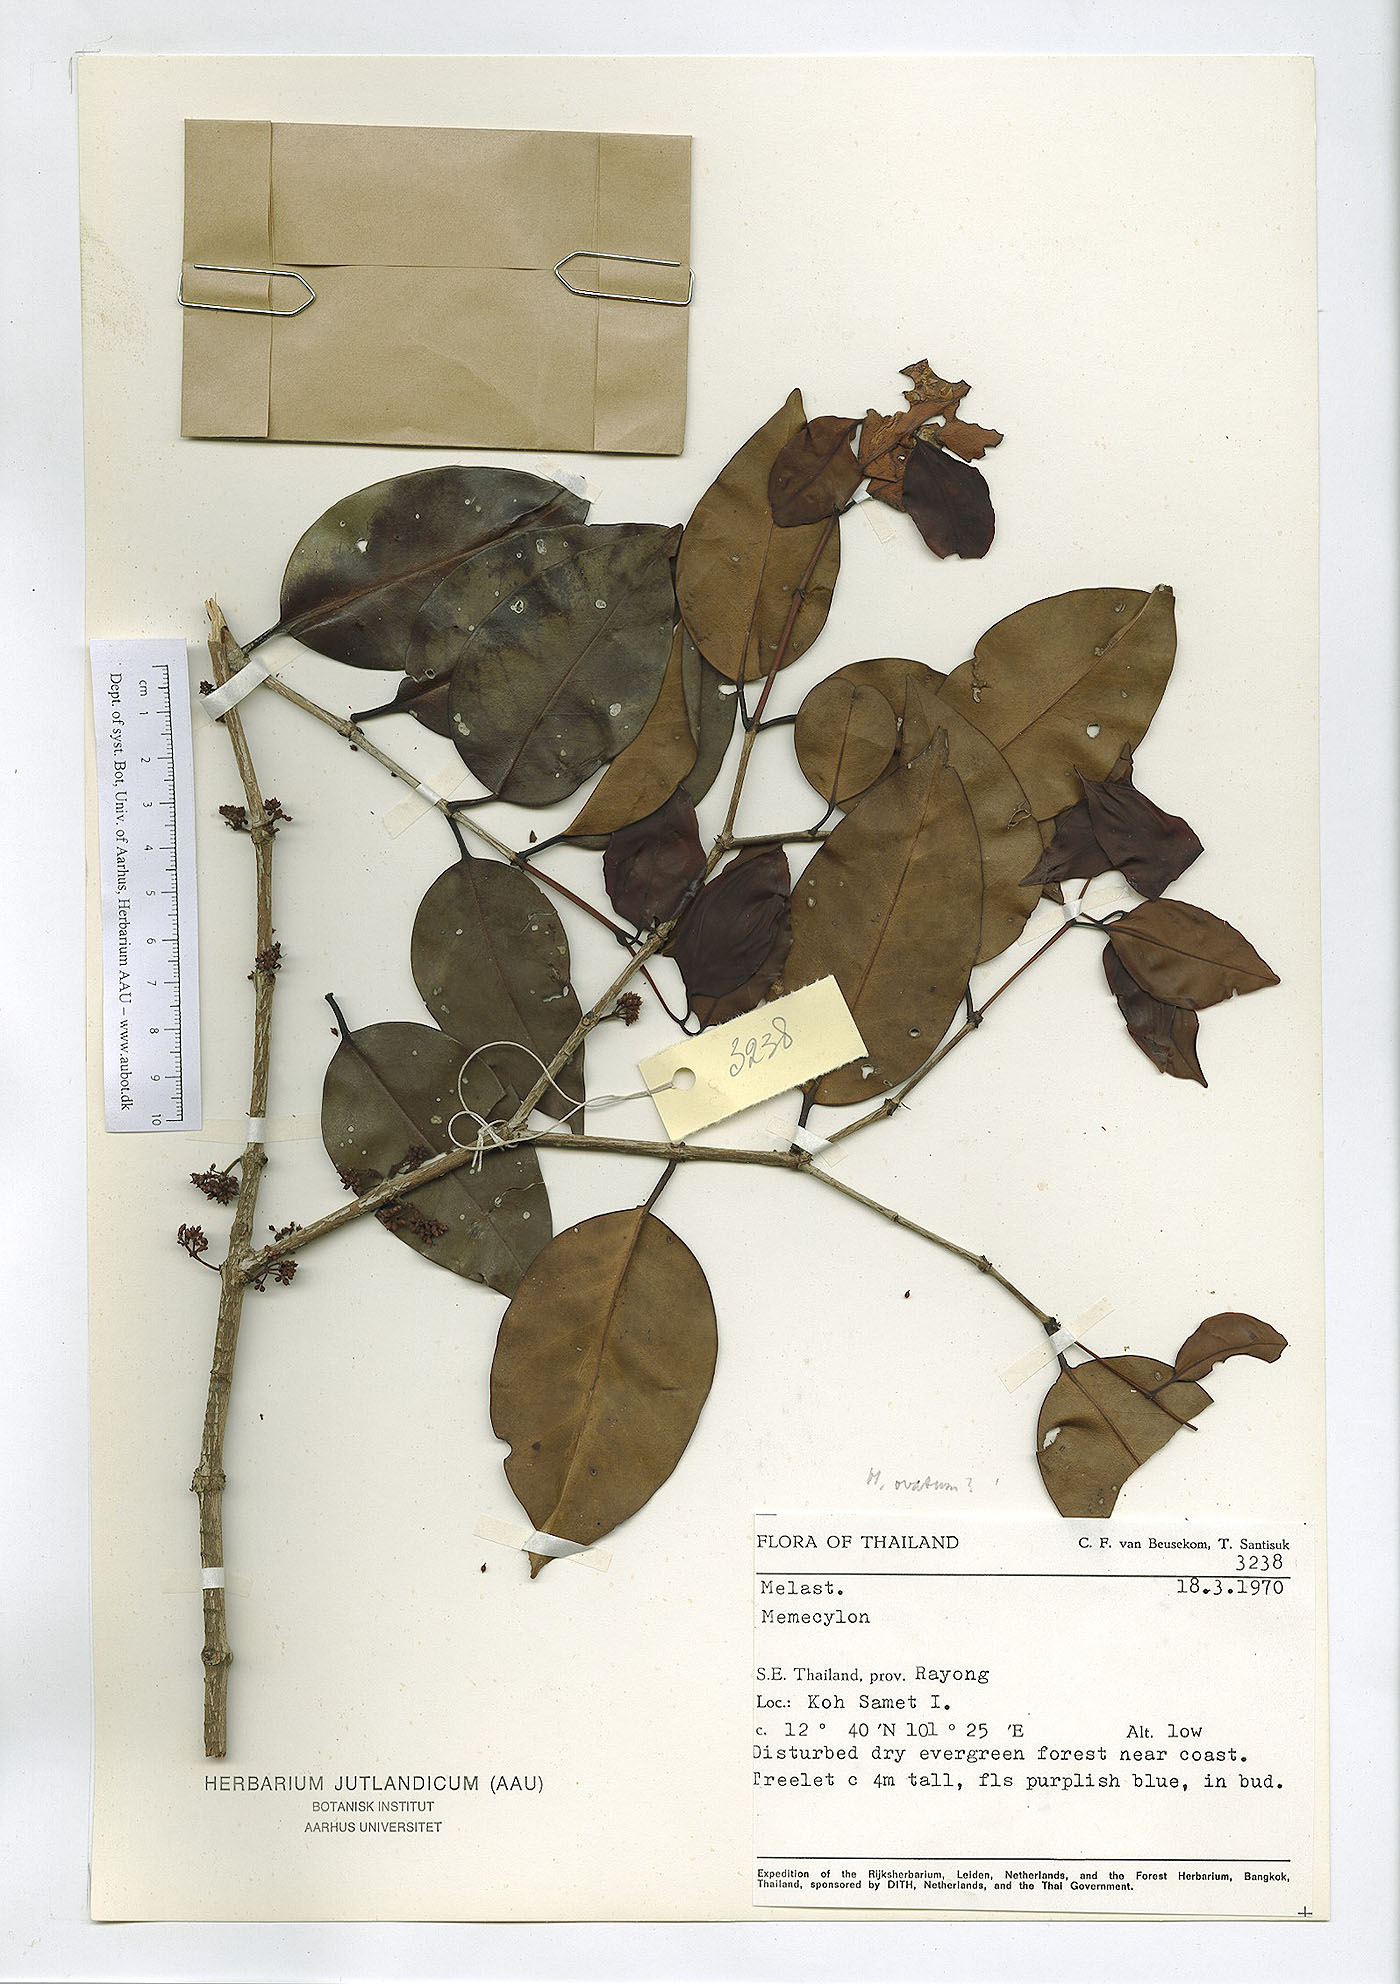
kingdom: Plantae
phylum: Tracheophyta
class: Magnoliopsida
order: Myrtales
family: Melastomataceae
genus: Memecylon
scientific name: Memecylon ovatum
